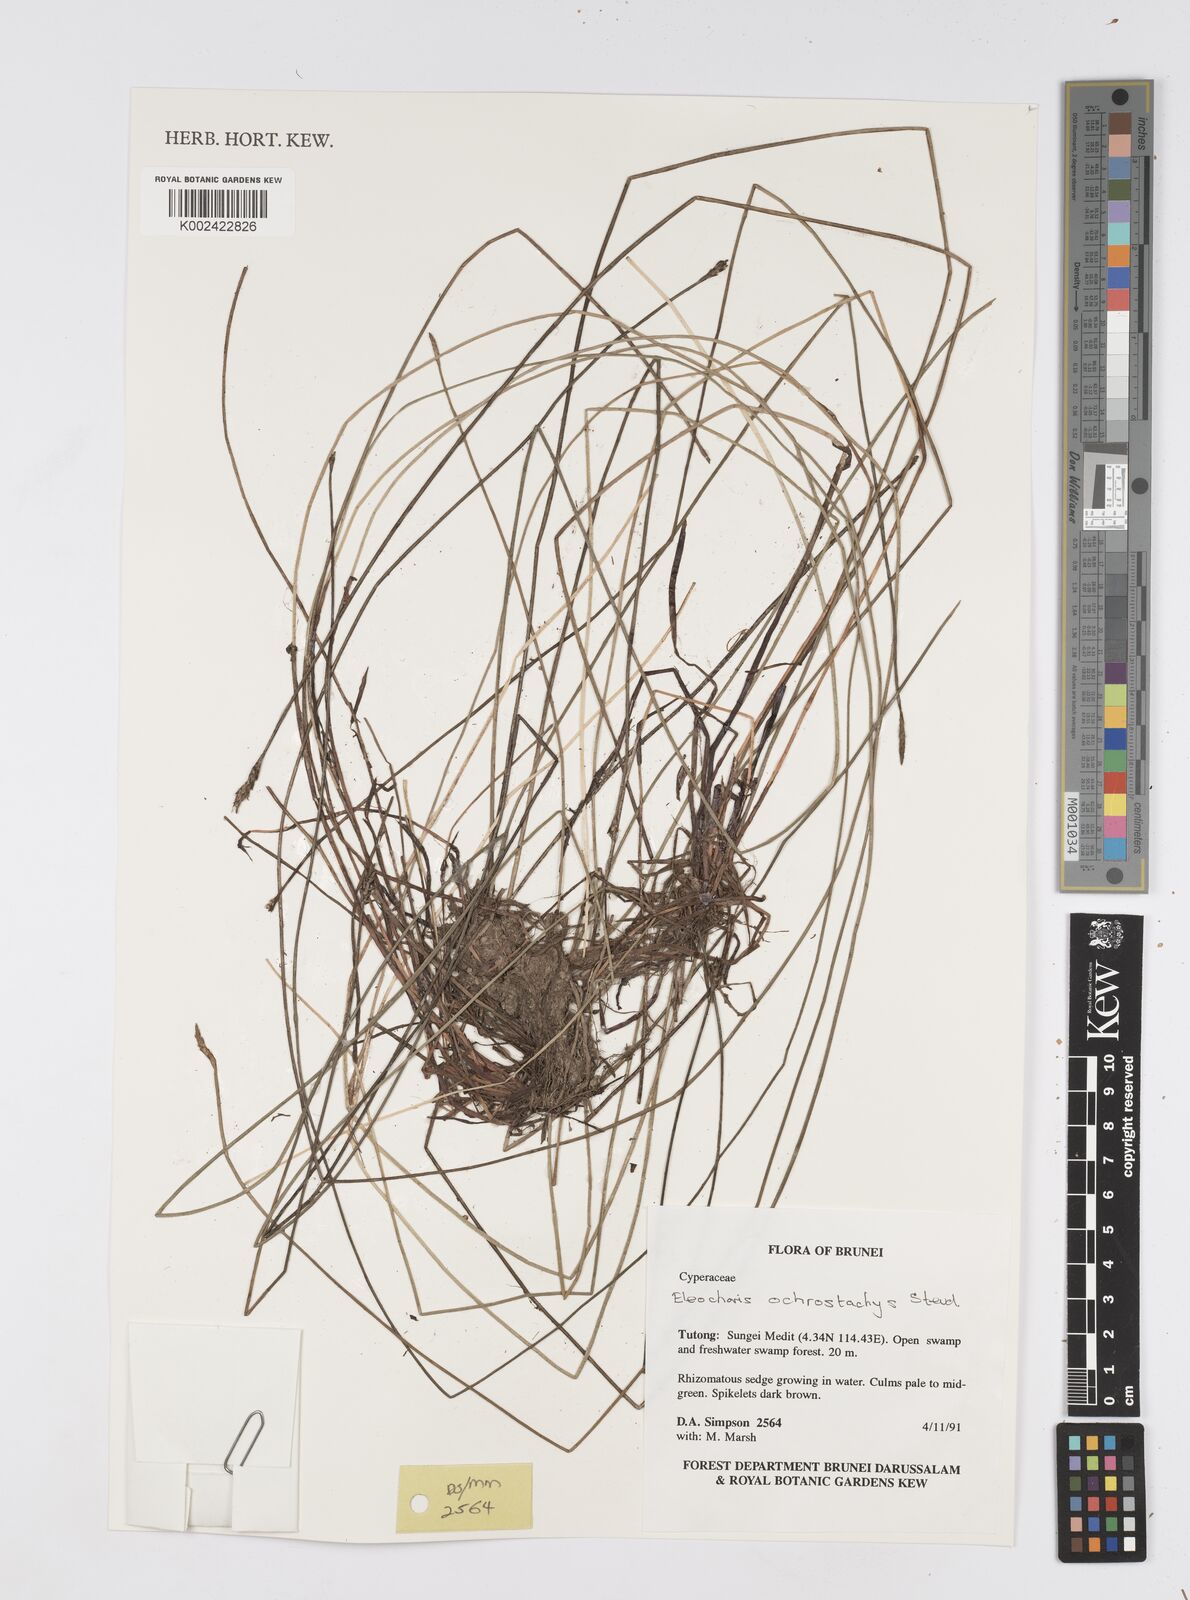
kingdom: Plantae
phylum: Tracheophyta
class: Liliopsida
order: Poales
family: Cyperaceae
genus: Eleocharis
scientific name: Eleocharis ochrostachys
